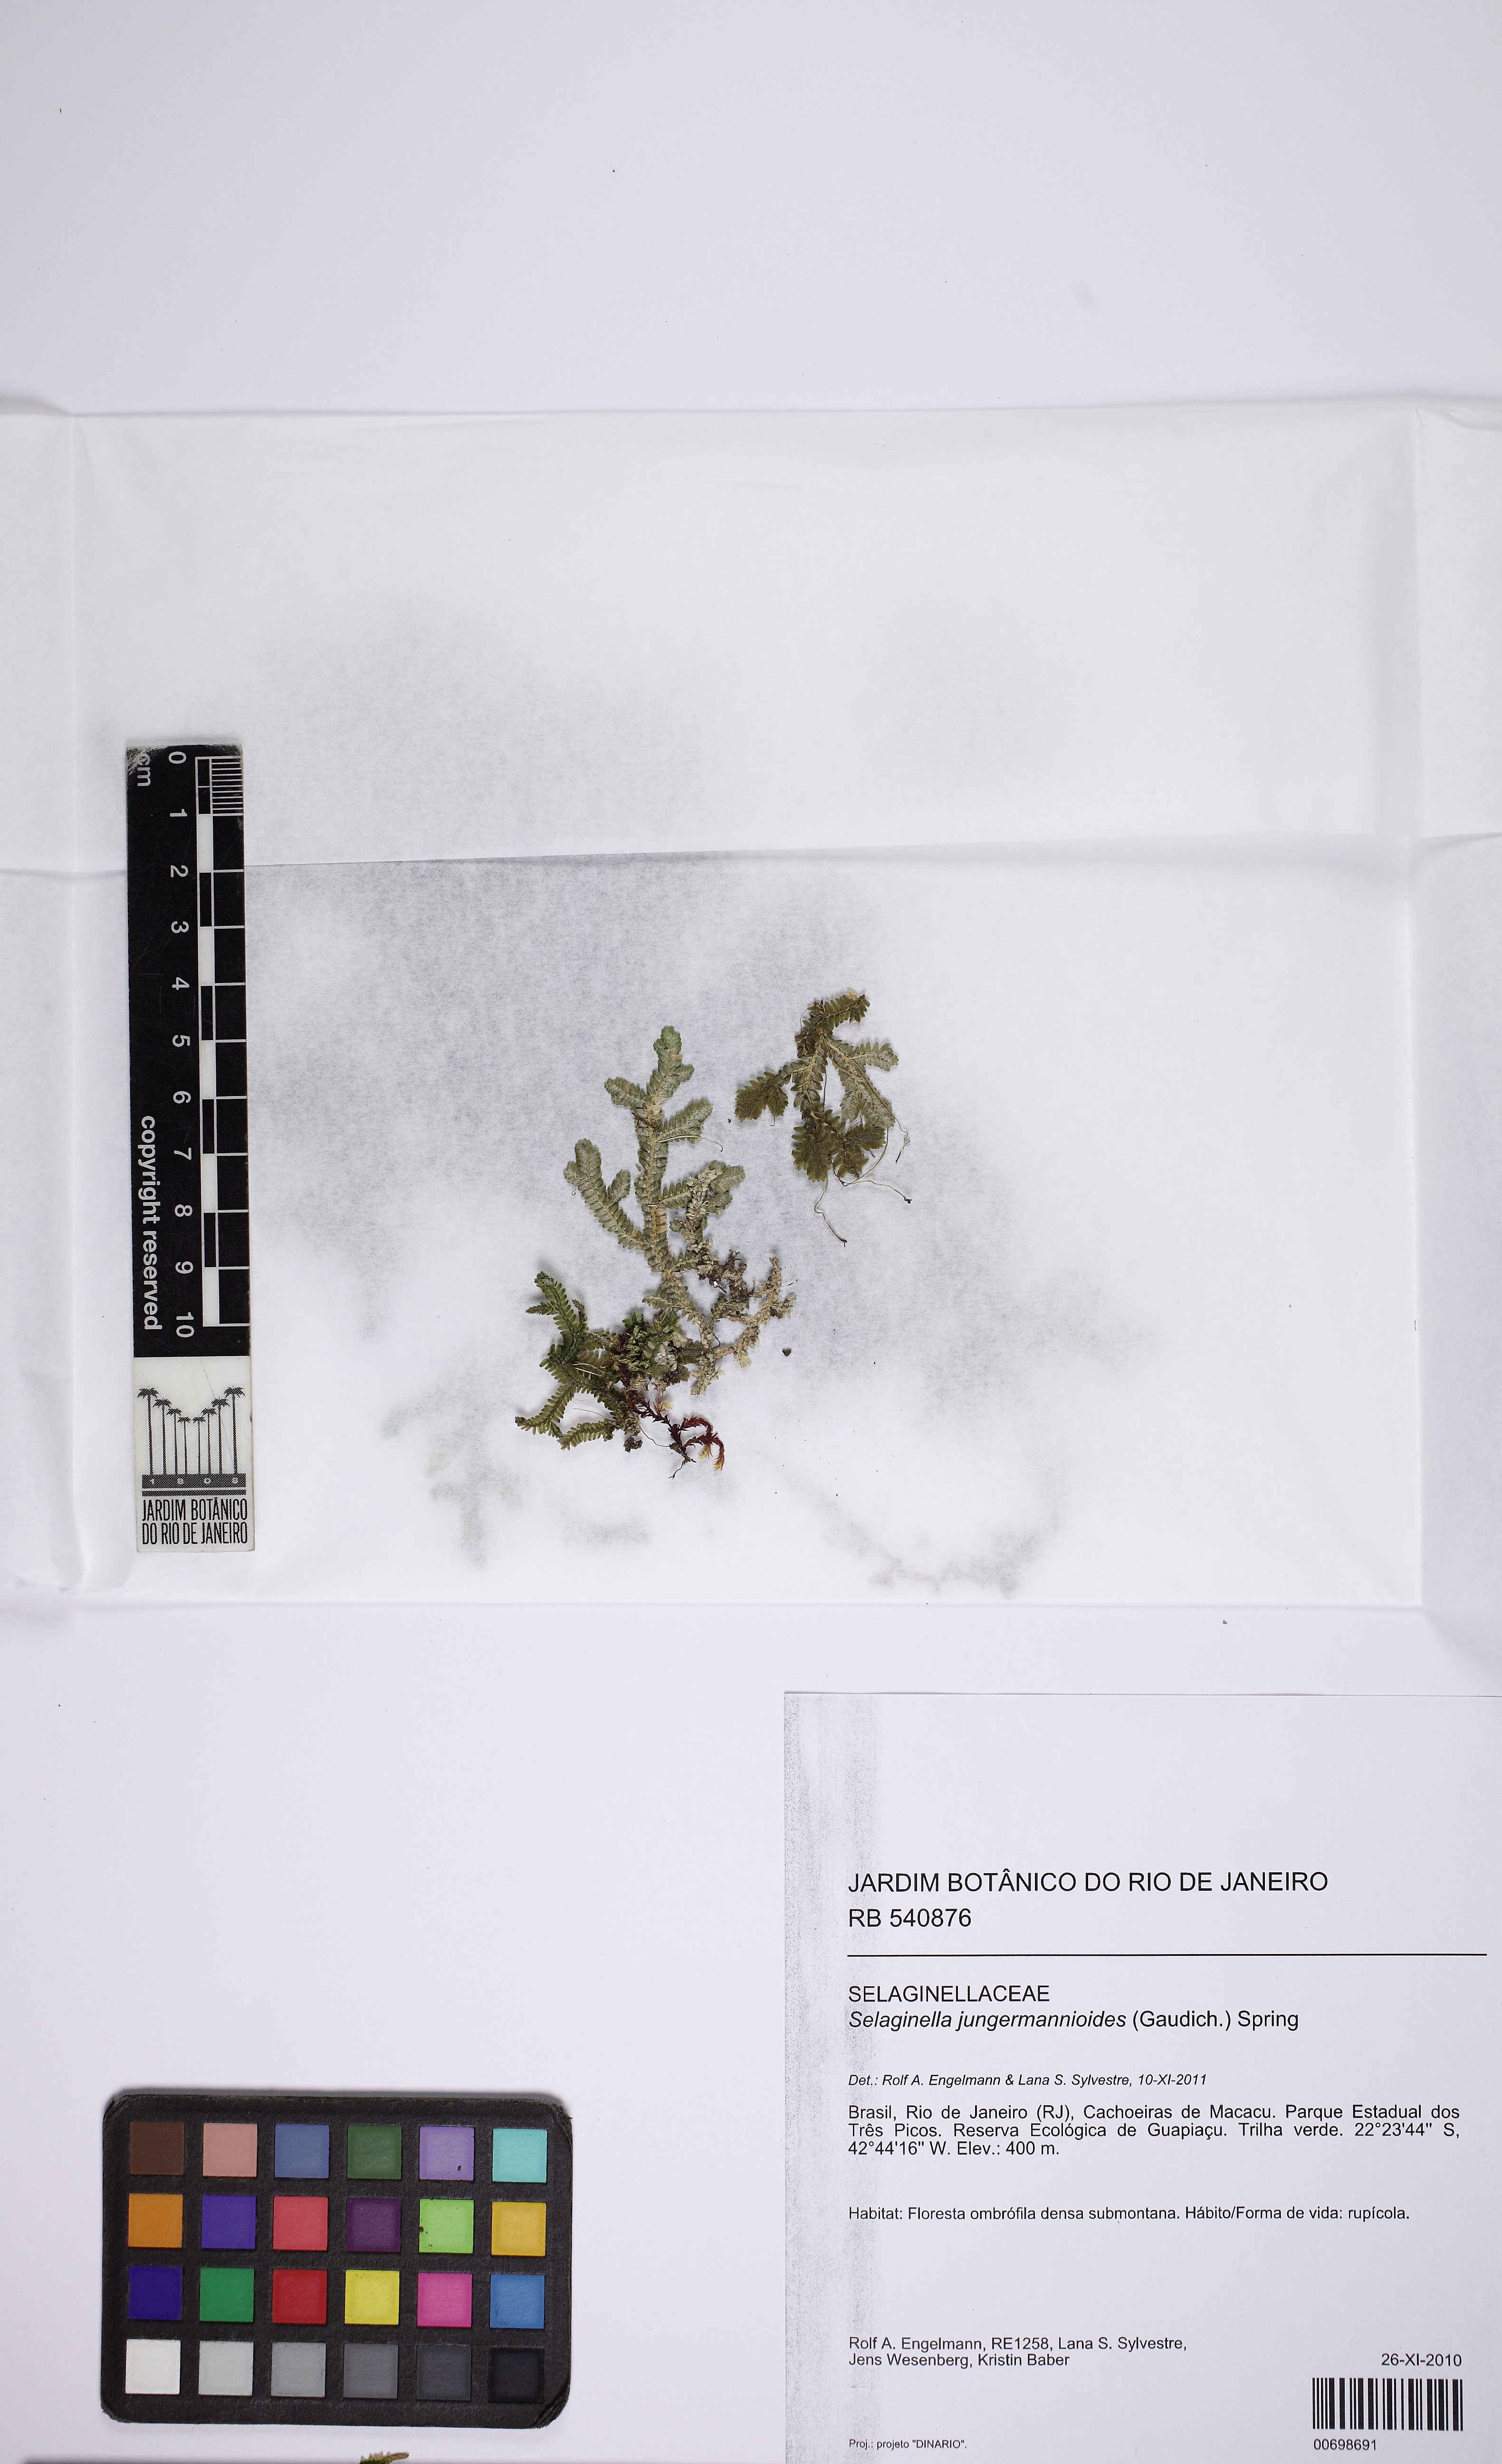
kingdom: Plantae
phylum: Tracheophyta
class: Lycopodiopsida
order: Selaginellales
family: Selaginellaceae
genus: Selaginella
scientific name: Selaginella jungermannioides
